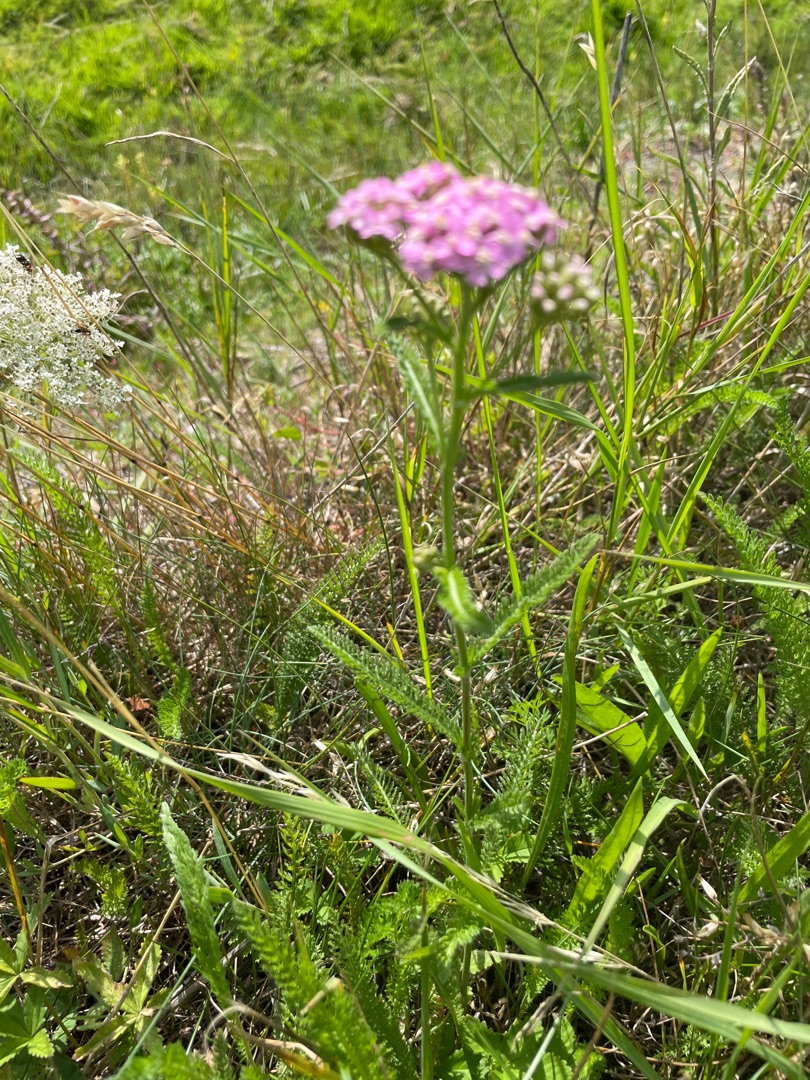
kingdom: Plantae
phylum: Tracheophyta
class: Magnoliopsida
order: Asterales
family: Asteraceae
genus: Achillea
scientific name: Achillea millefolium
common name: Almindelig røllike
